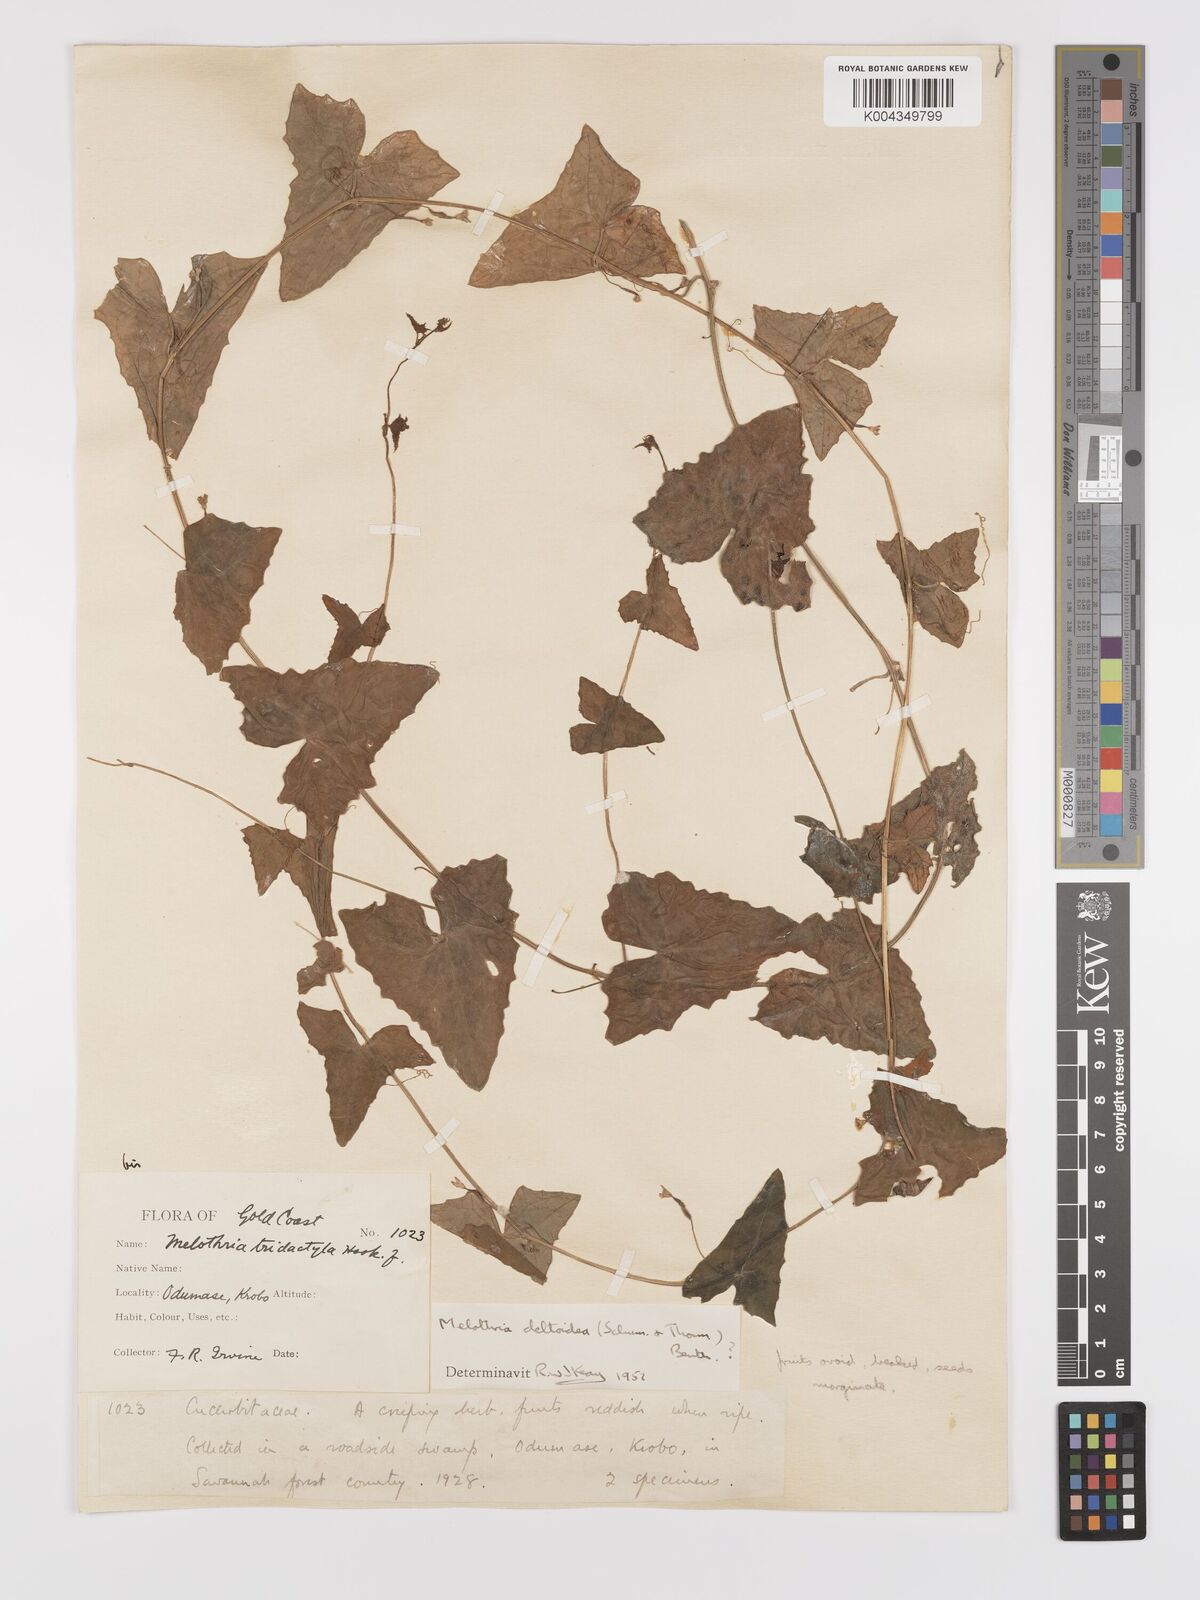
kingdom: Plantae
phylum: Tracheophyta
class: Magnoliopsida
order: Cucurbitales
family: Cucurbitaceae
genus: Zehneria
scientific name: Zehneria hallii
